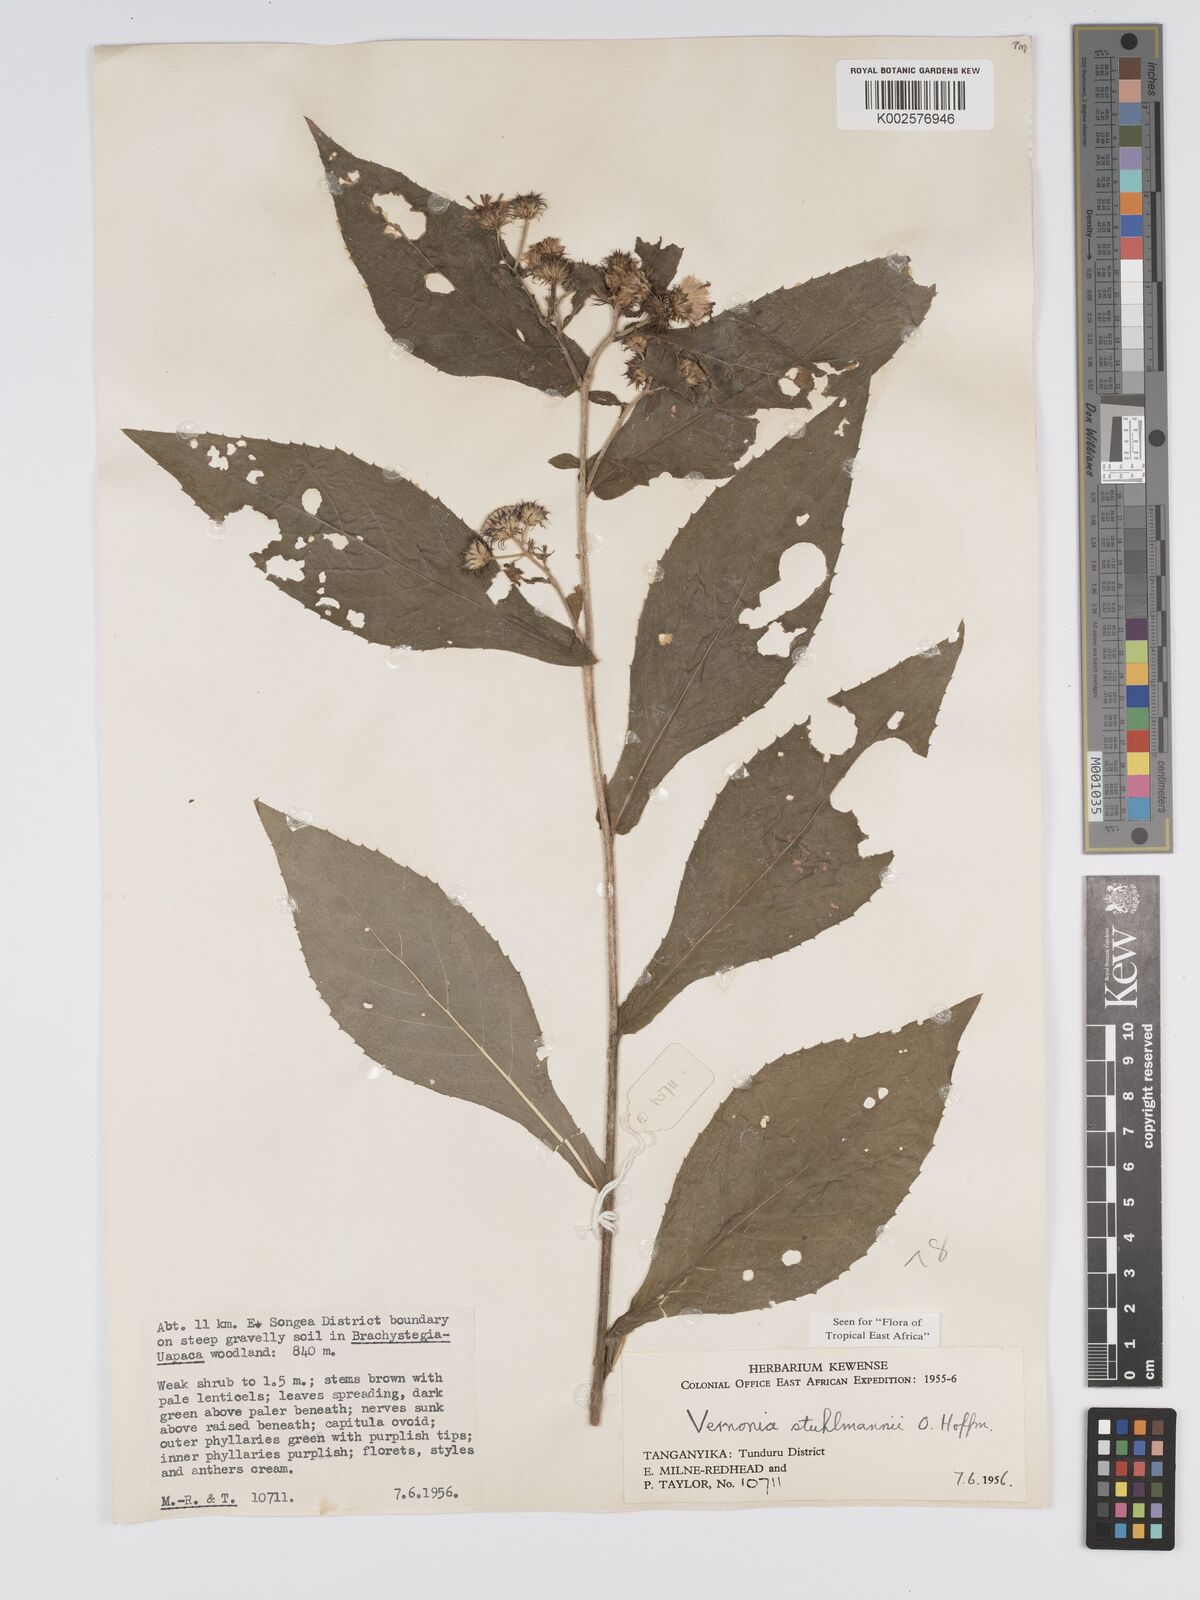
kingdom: Plantae
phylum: Tracheophyta
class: Magnoliopsida
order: Asterales
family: Asteraceae
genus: Vernonia
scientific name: Vernonia stuhlmannii
